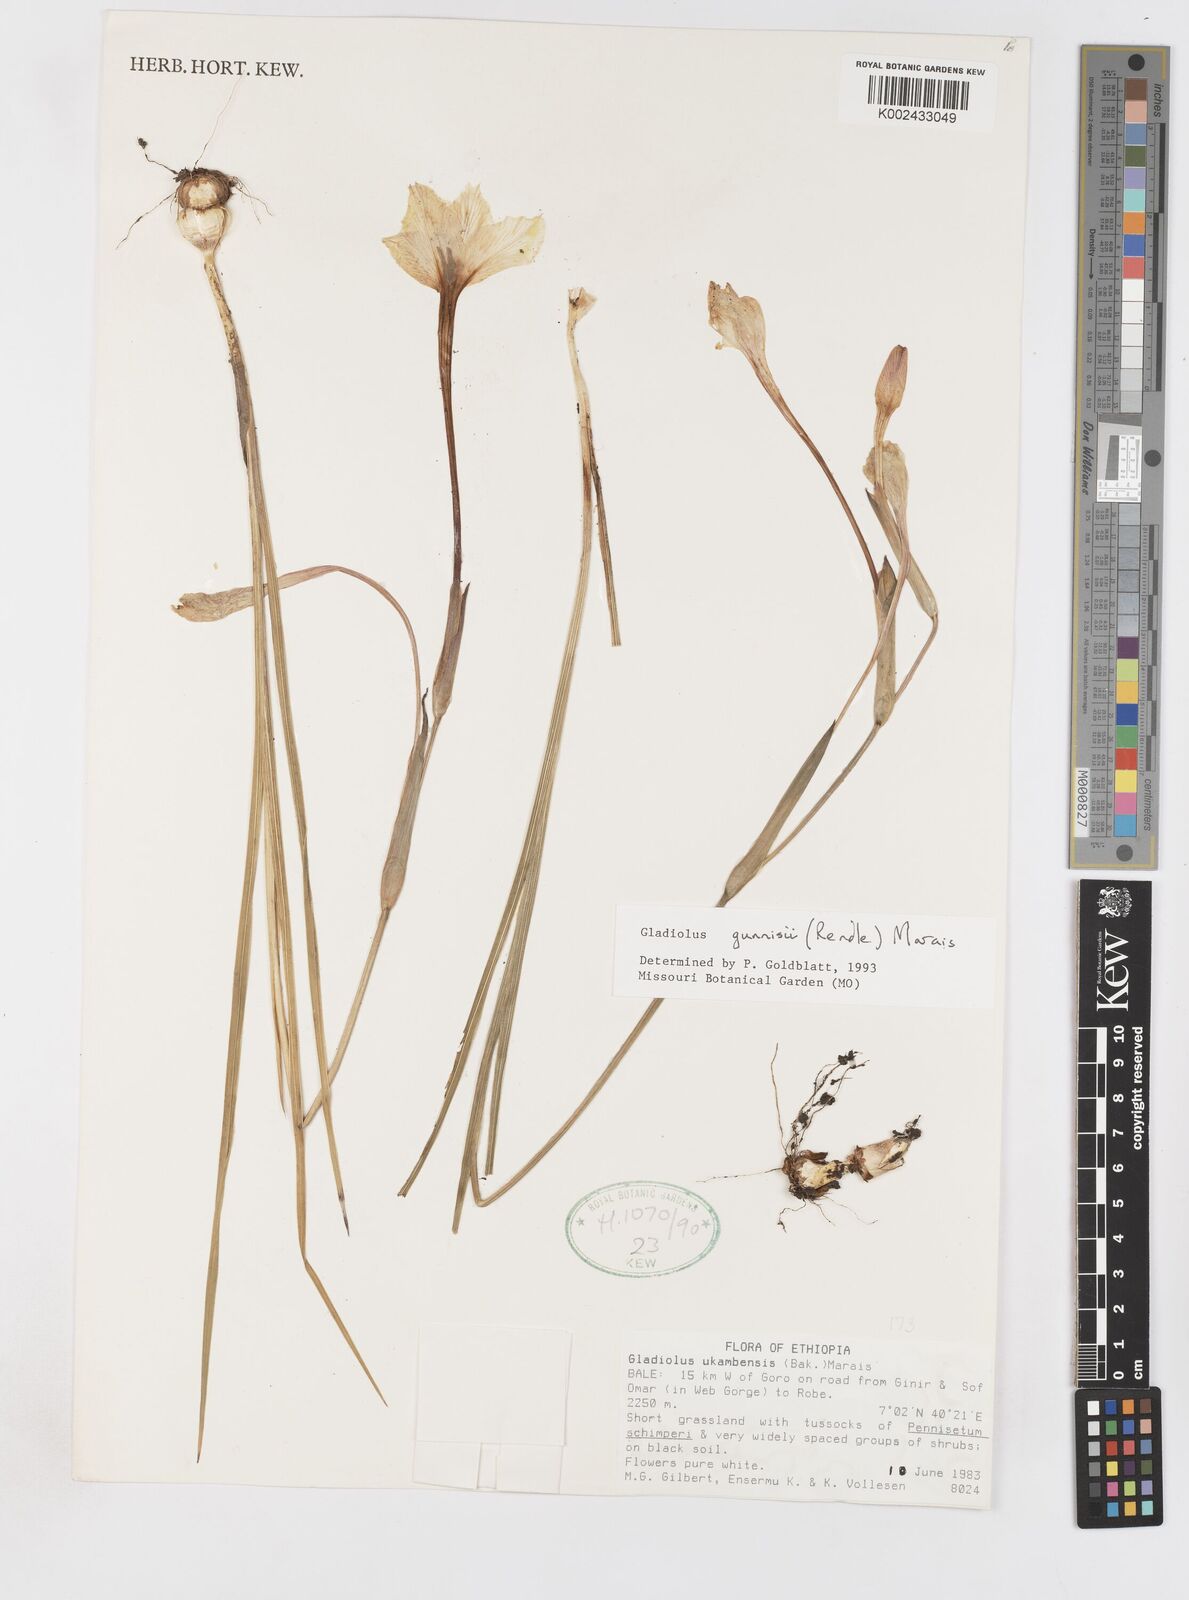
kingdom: Plantae
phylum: Tracheophyta
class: Liliopsida
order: Asparagales
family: Iridaceae
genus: Gladiolus
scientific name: Gladiolus gunnisii
